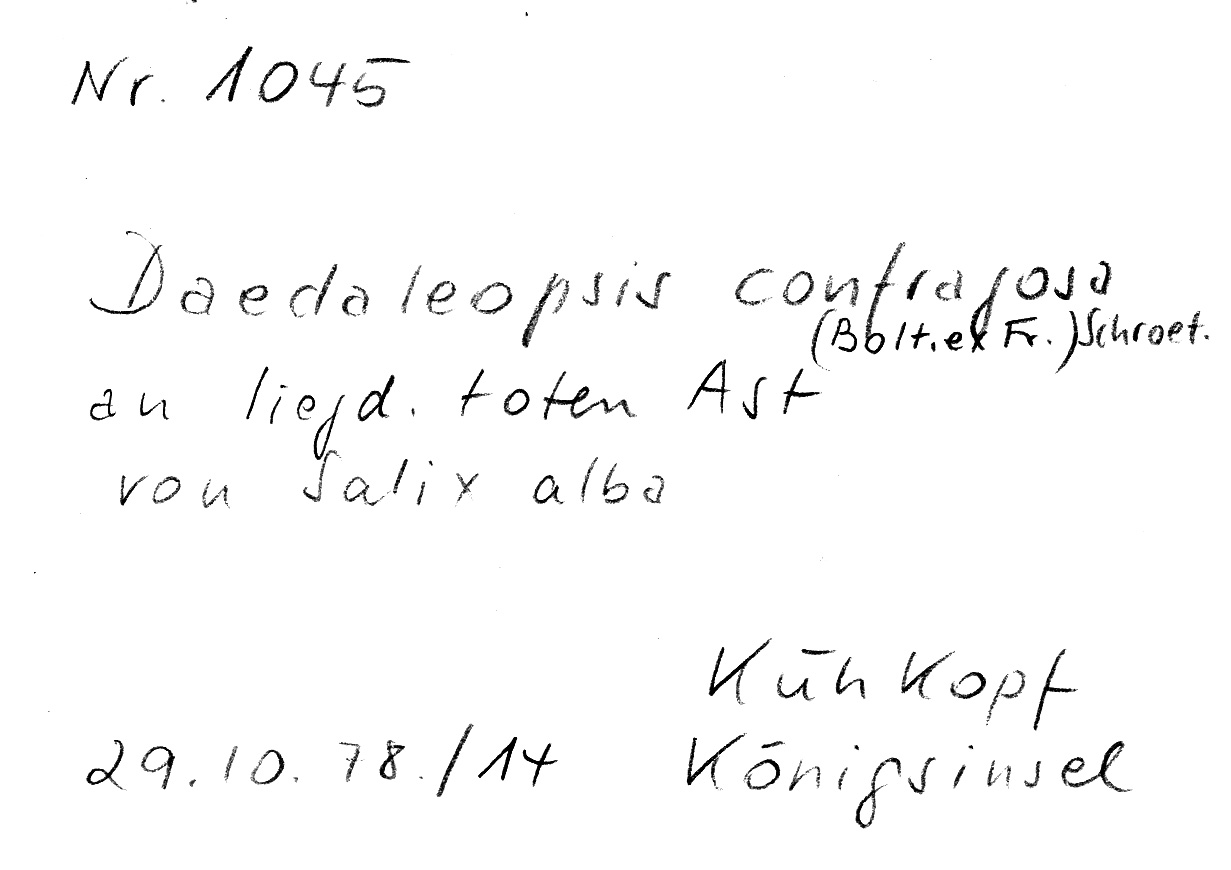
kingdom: Fungi
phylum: Basidiomycota
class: Agaricomycetes
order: Polyporales
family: Polyporaceae
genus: Daedaleopsis
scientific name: Daedaleopsis confragosa
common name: Blushing bracket
